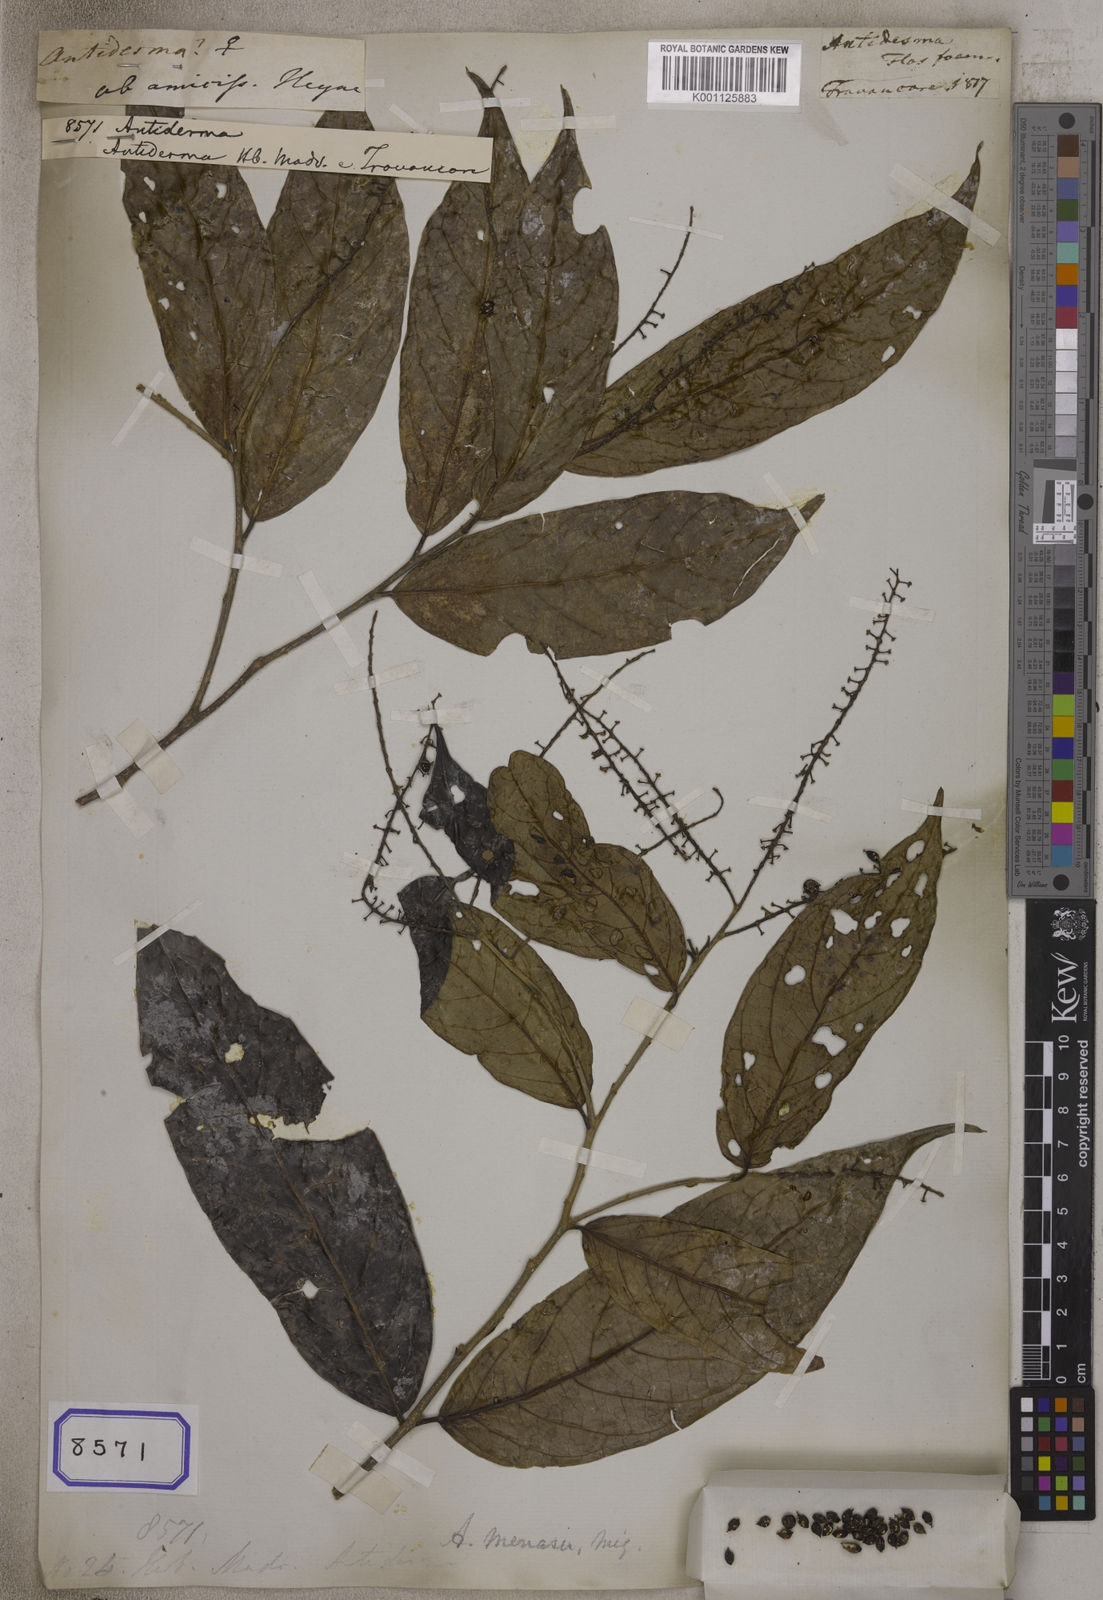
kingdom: Plantae
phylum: Tracheophyta
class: Magnoliopsida
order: Malpighiales
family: Phyllanthaceae
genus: Antidesma
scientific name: Antidesma
